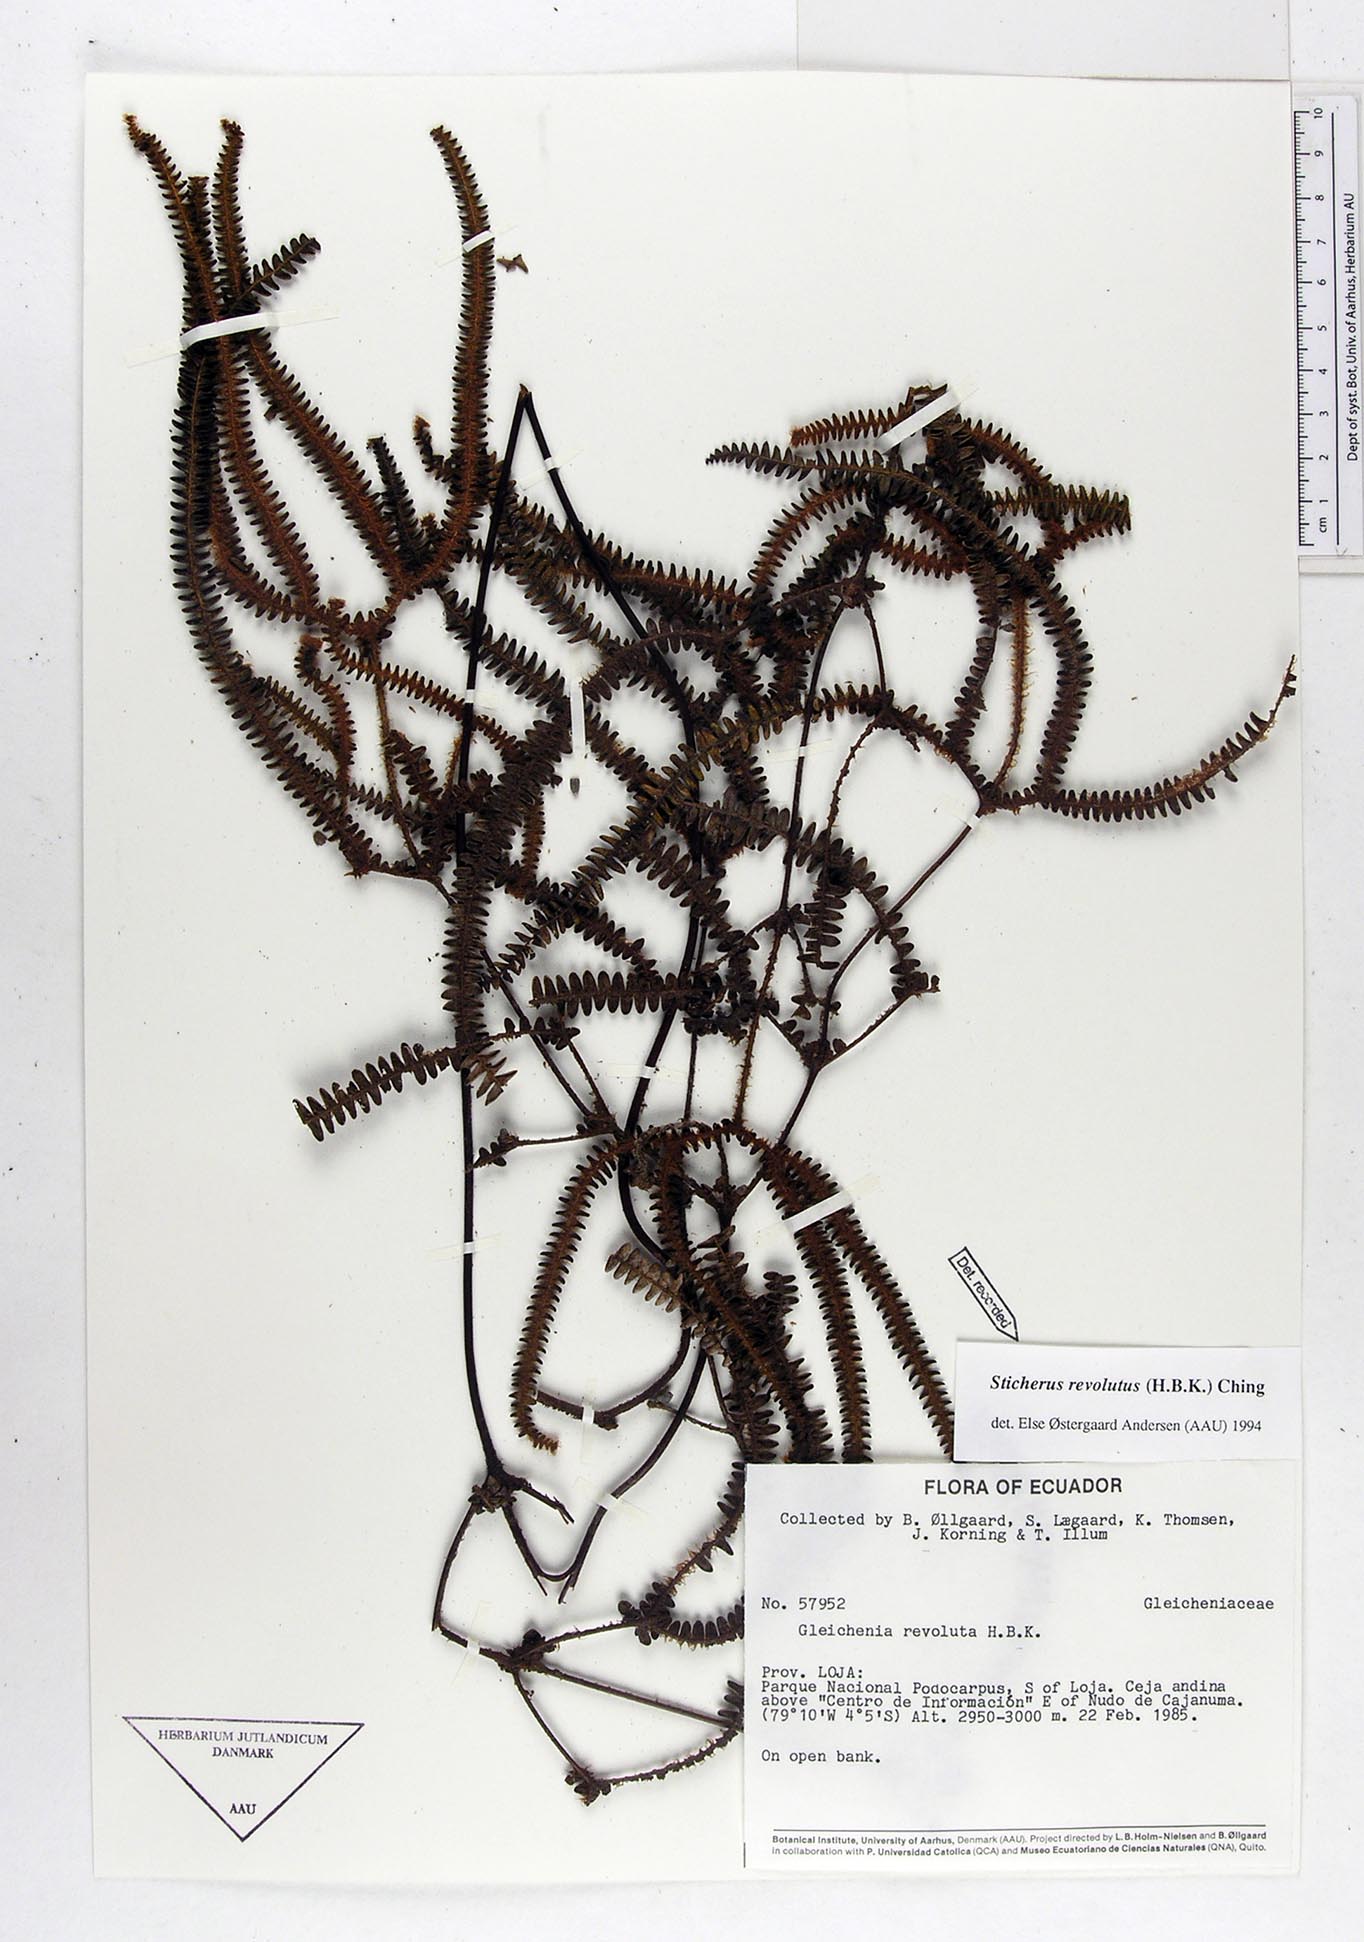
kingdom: Plantae
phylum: Tracheophyta
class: Polypodiopsida
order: Gleicheniales
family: Gleicheniaceae
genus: Sticherus
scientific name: Sticherus revolutus
